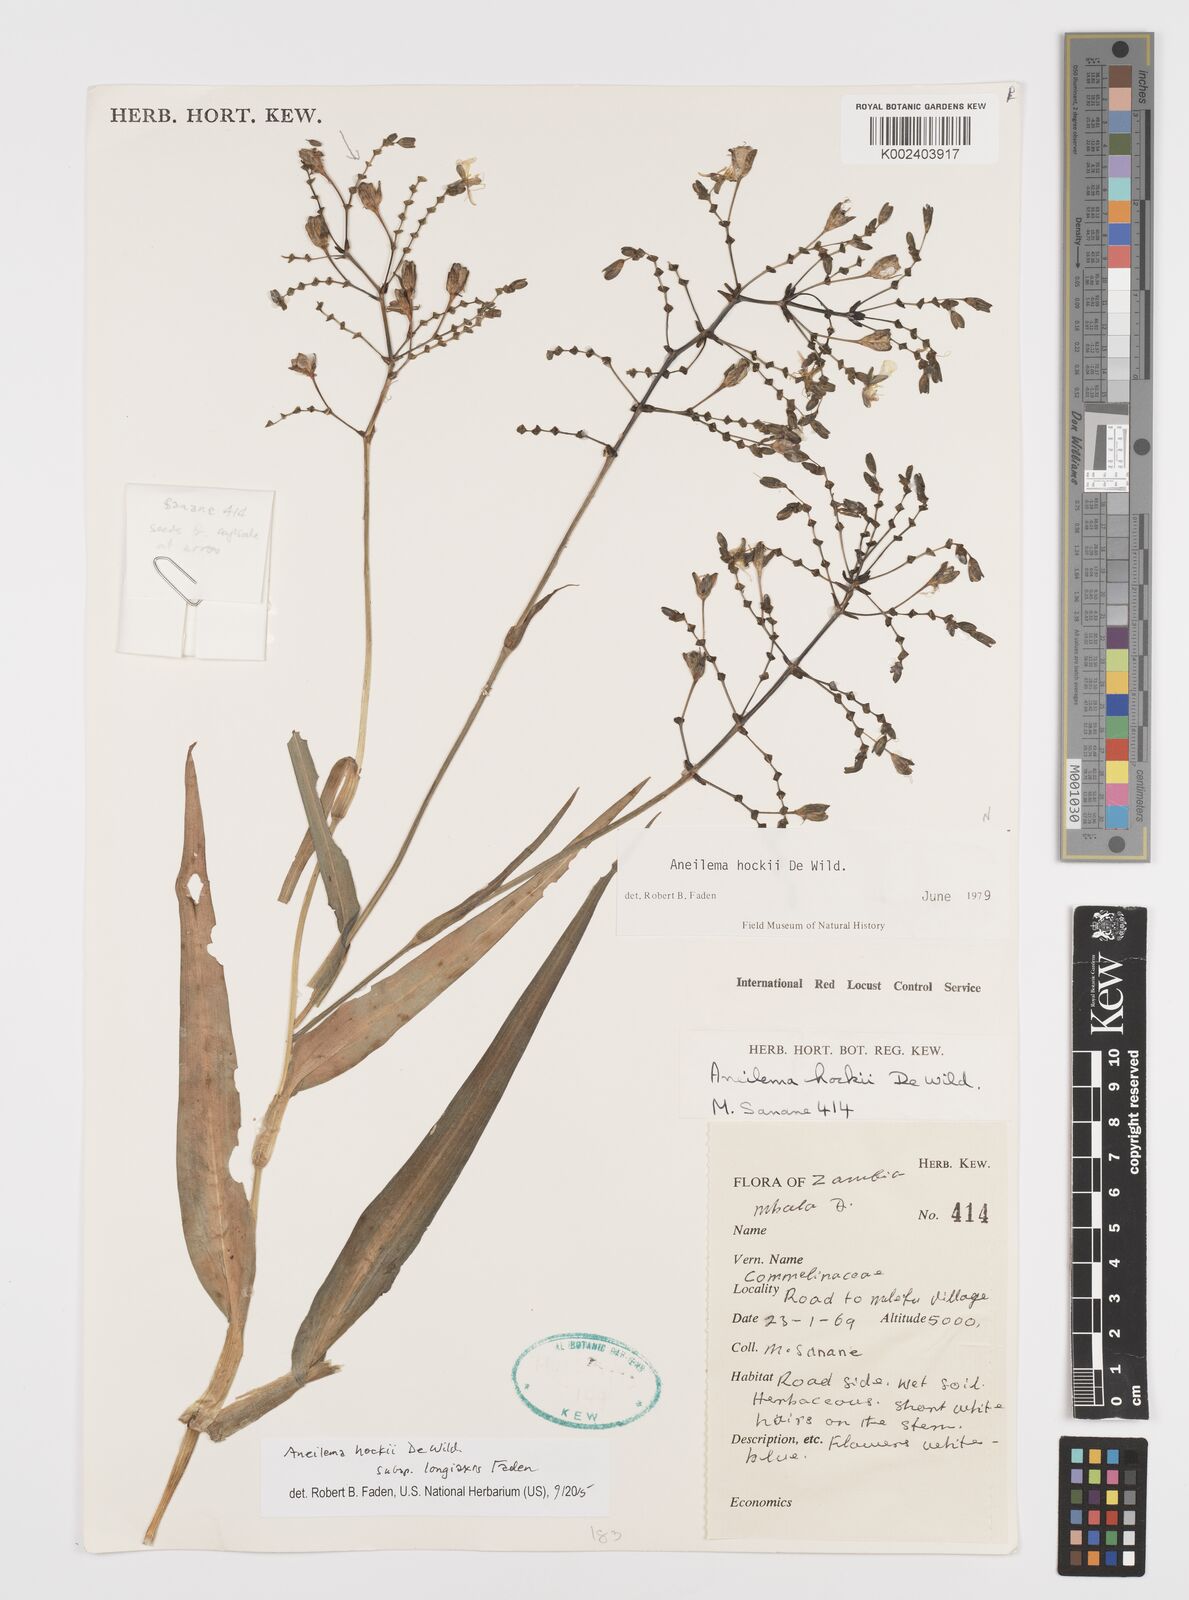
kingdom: Plantae
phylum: Tracheophyta
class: Liliopsida
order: Commelinales
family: Commelinaceae
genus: Aneilema
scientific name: Aneilema hockii
